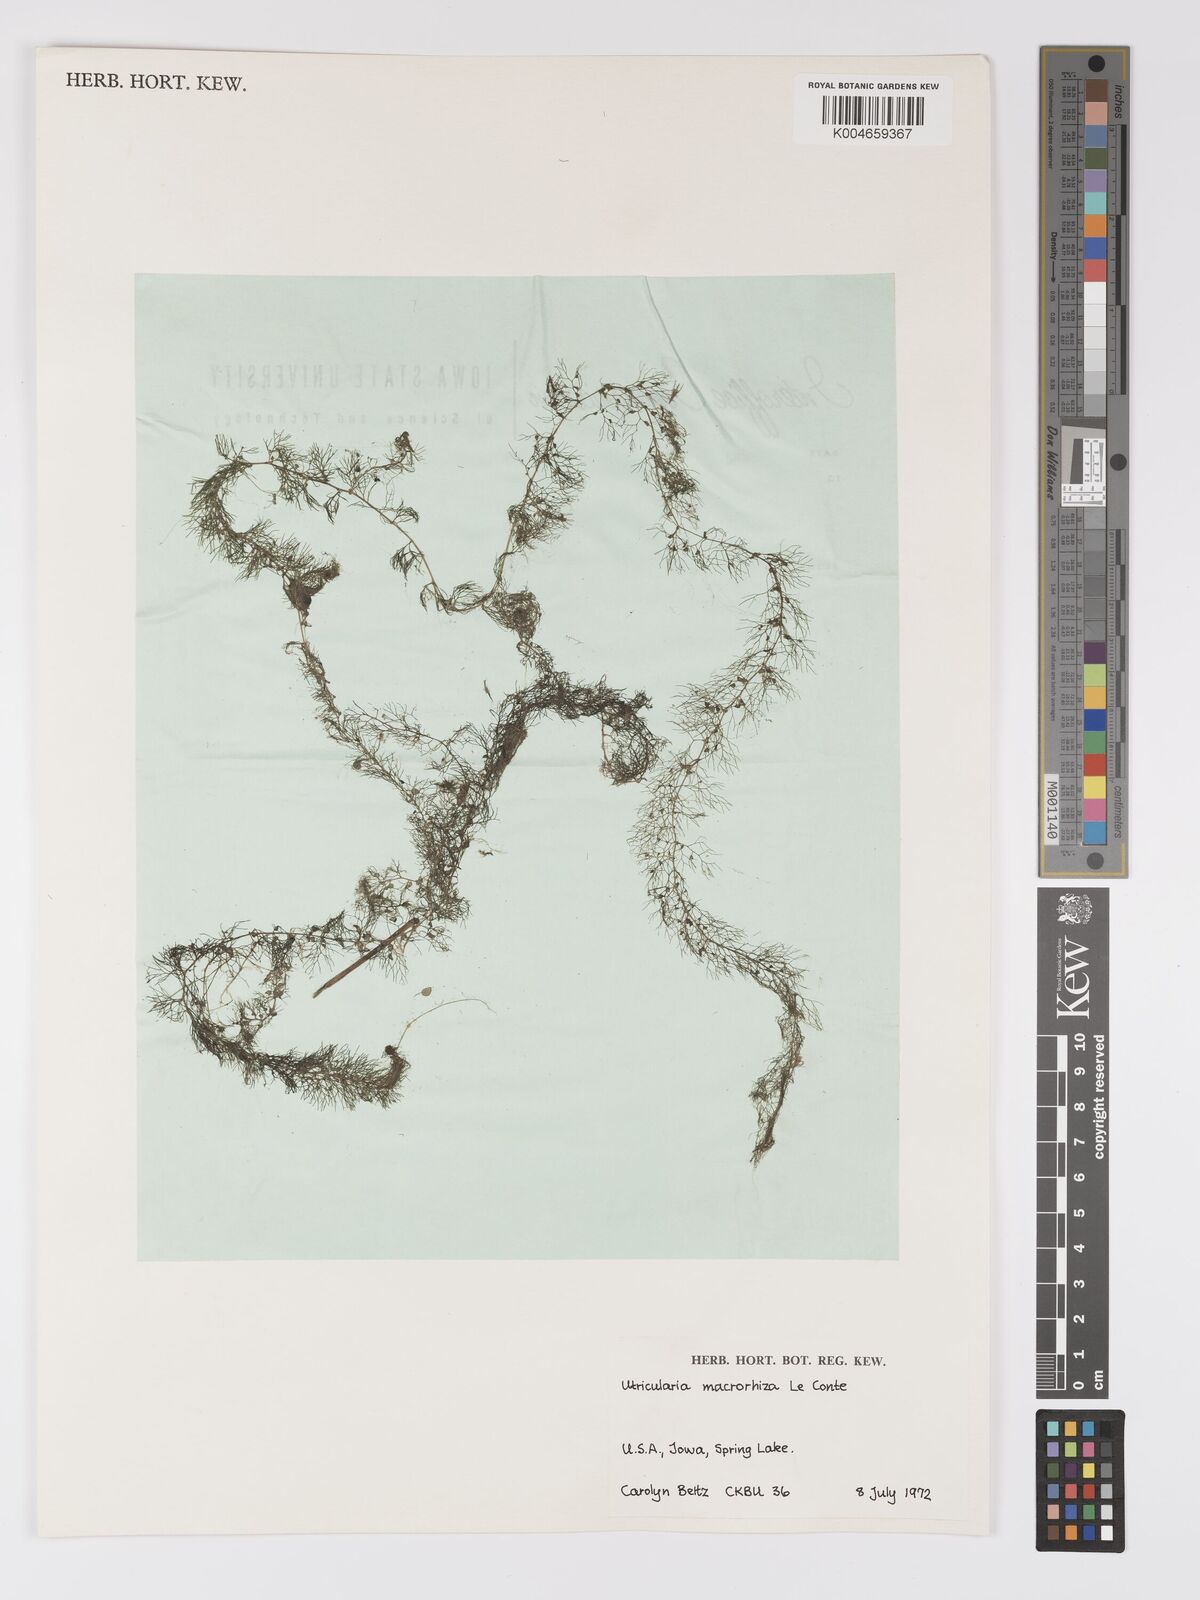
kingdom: Plantae
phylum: Tracheophyta
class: Magnoliopsida
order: Lamiales
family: Lentibulariaceae
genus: Utricularia
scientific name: Utricularia macrorhiza
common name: Common bladderwort
